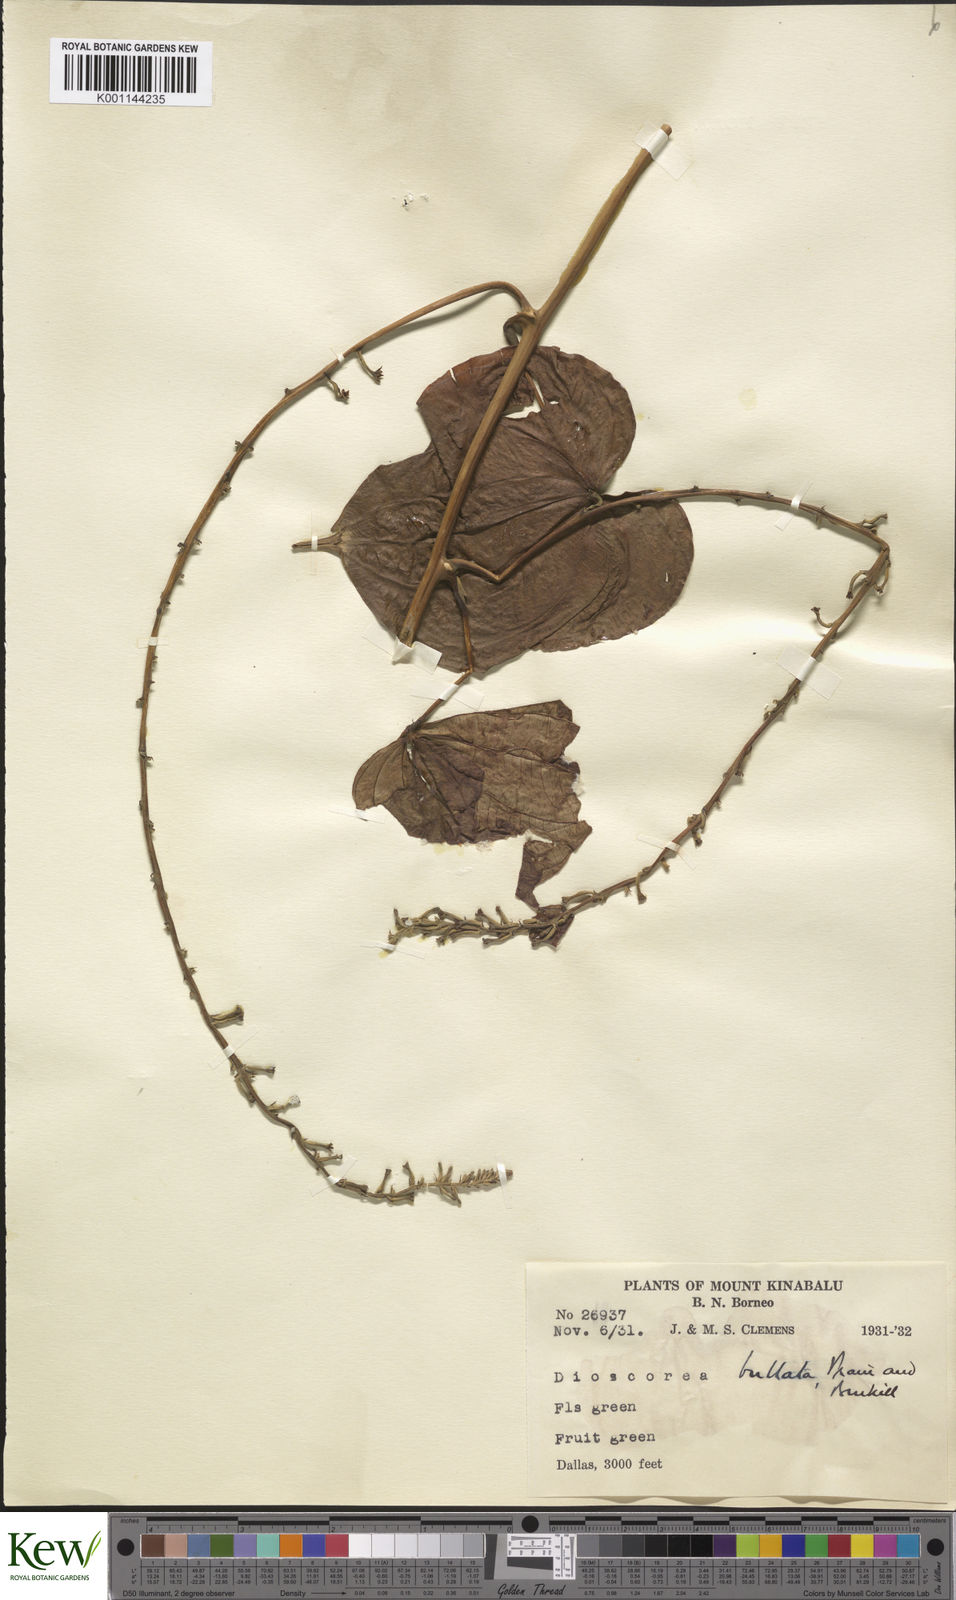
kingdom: Plantae
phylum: Tracheophyta
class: Liliopsida
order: Dioscoreales
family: Dioscoreaceae
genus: Dioscorea
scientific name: Dioscorea flabellifolia
